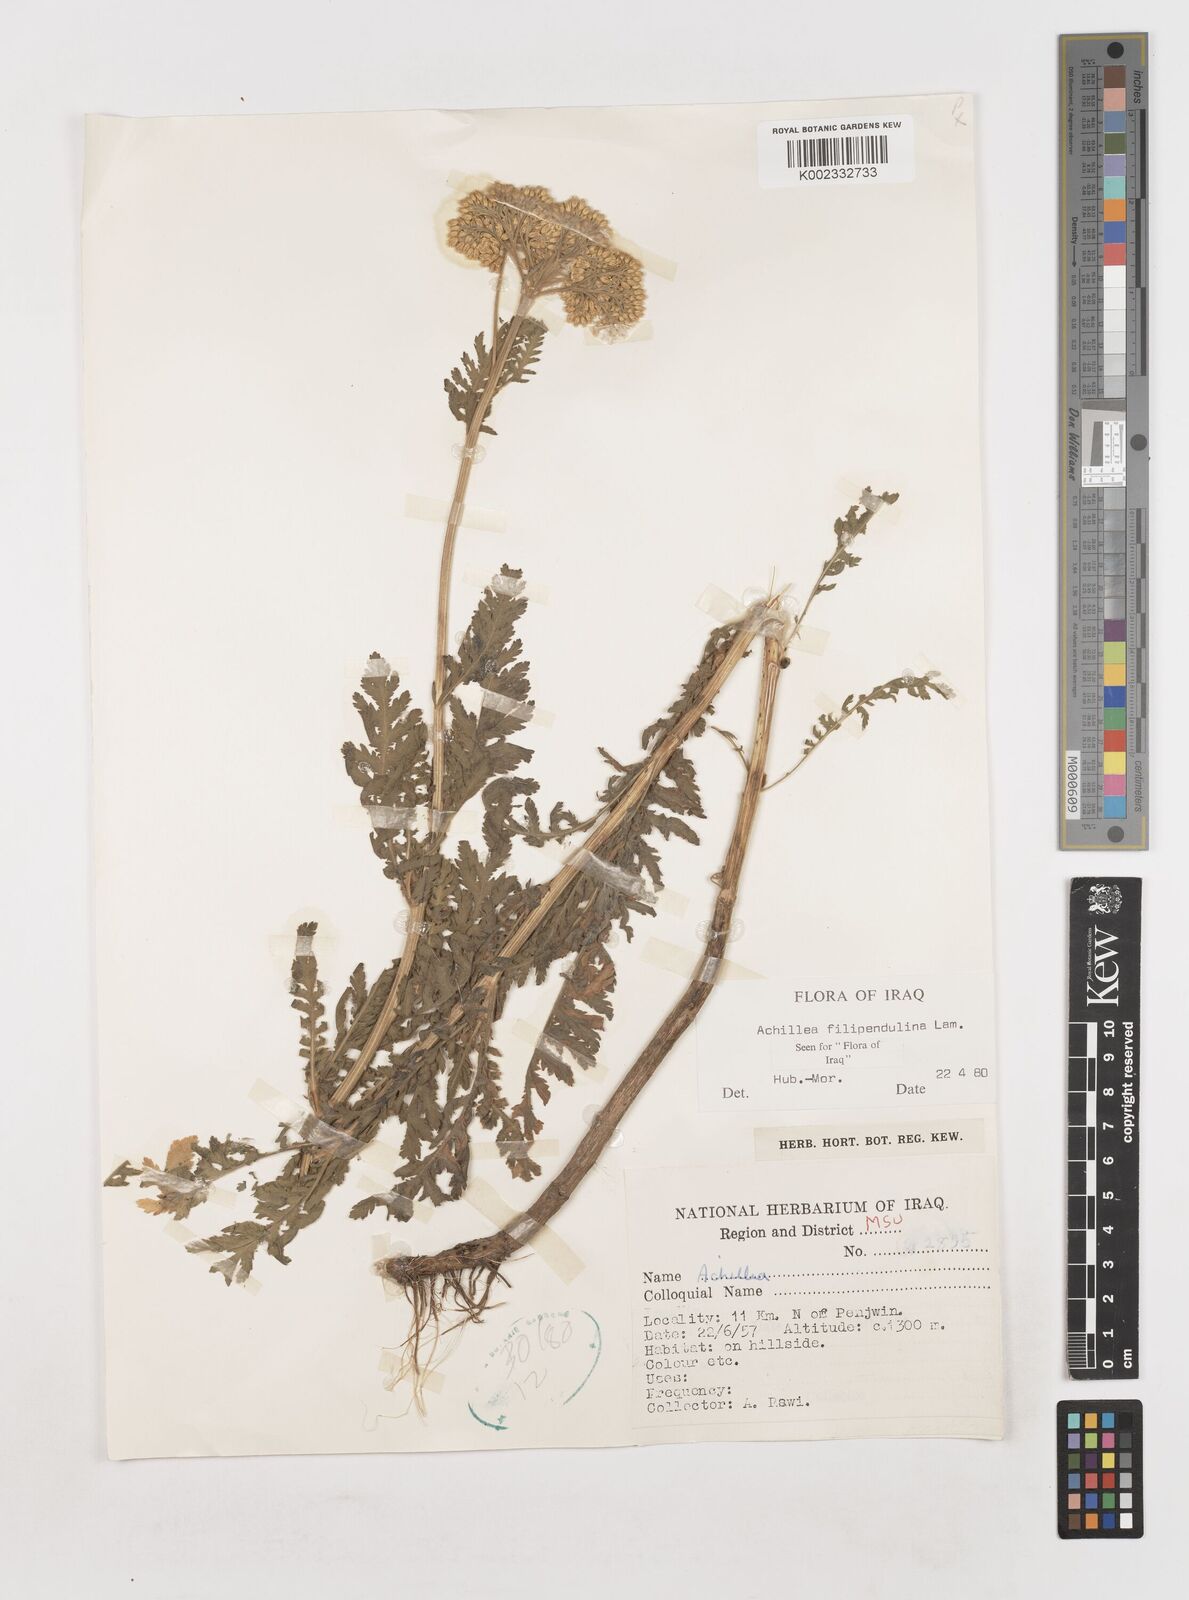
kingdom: Plantae
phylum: Tracheophyta
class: Magnoliopsida
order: Asterales
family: Asteraceae
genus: Achillea
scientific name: Achillea filipendulina
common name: Fernleaf yarrow
